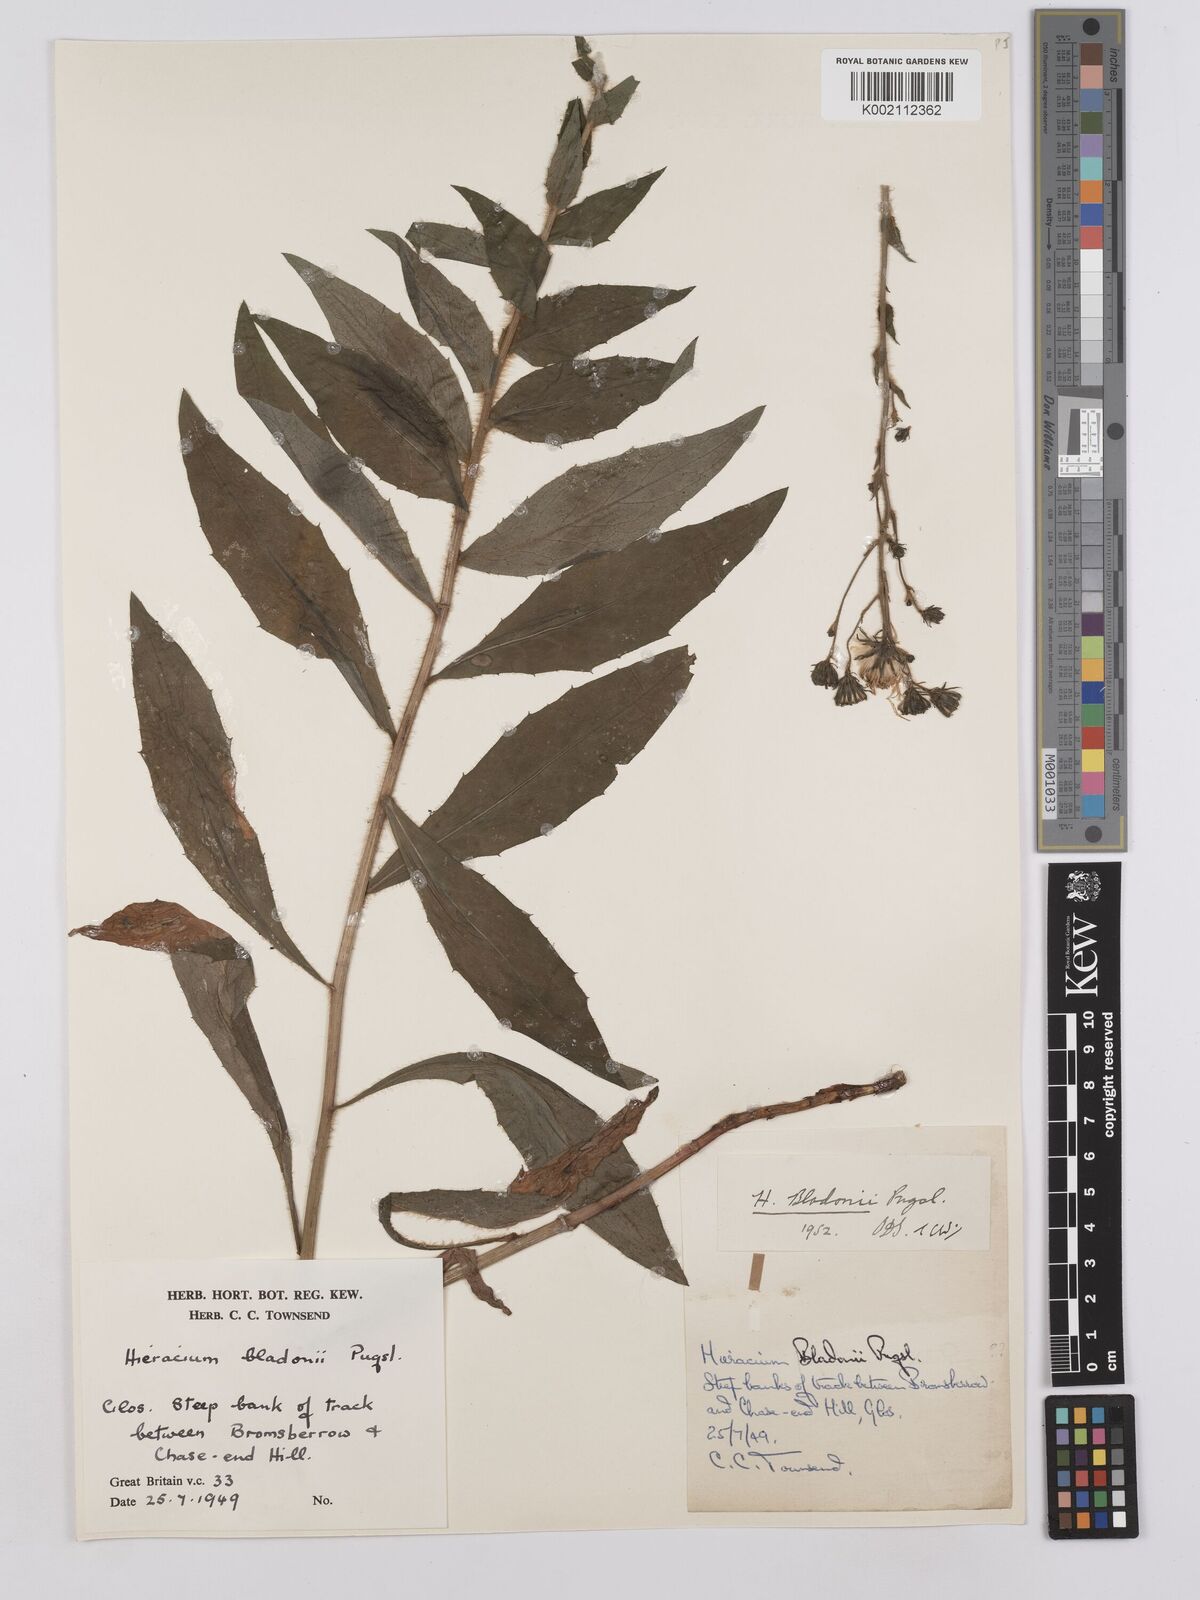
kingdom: Plantae
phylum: Tracheophyta
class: Magnoliopsida
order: Asterales
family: Asteraceae
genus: Hieracium
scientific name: Hieracium sabaudum
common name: New england hawkweed
